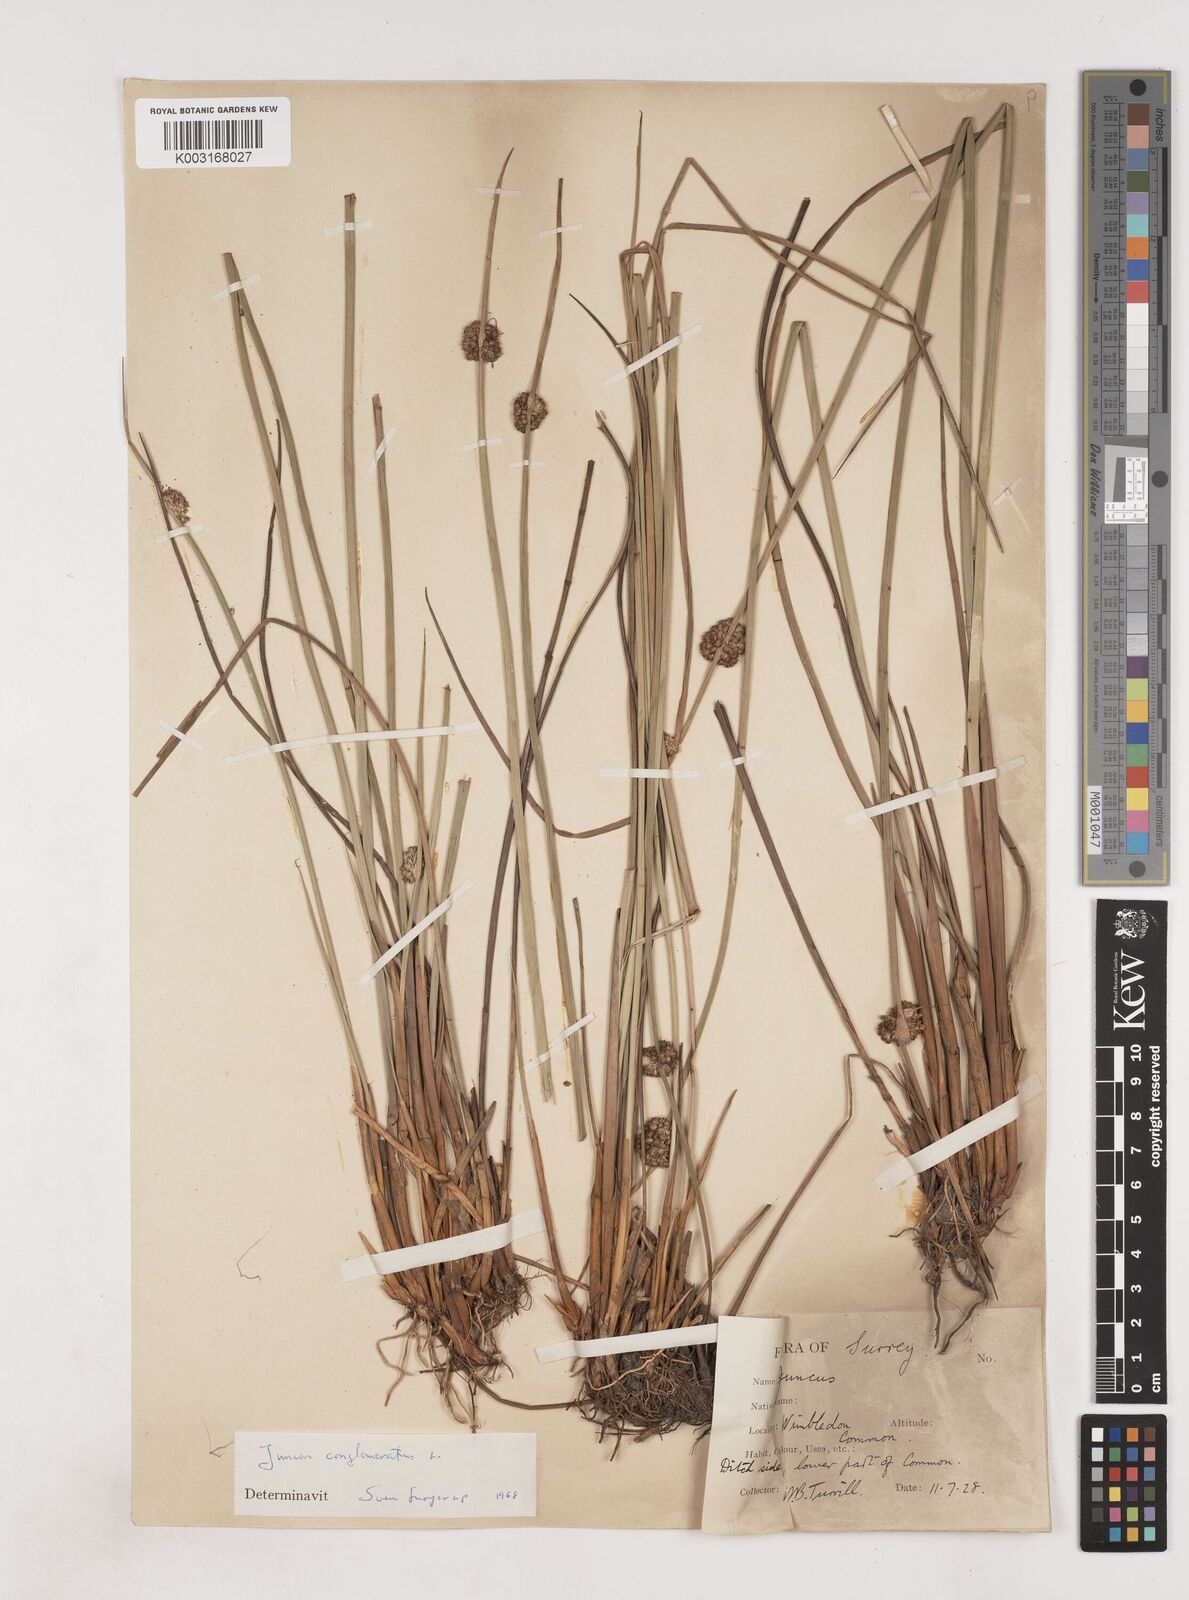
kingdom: Plantae
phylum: Tracheophyta
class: Liliopsida
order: Poales
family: Juncaceae
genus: Juncus
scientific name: Juncus conglomeratus
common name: Compact rush
